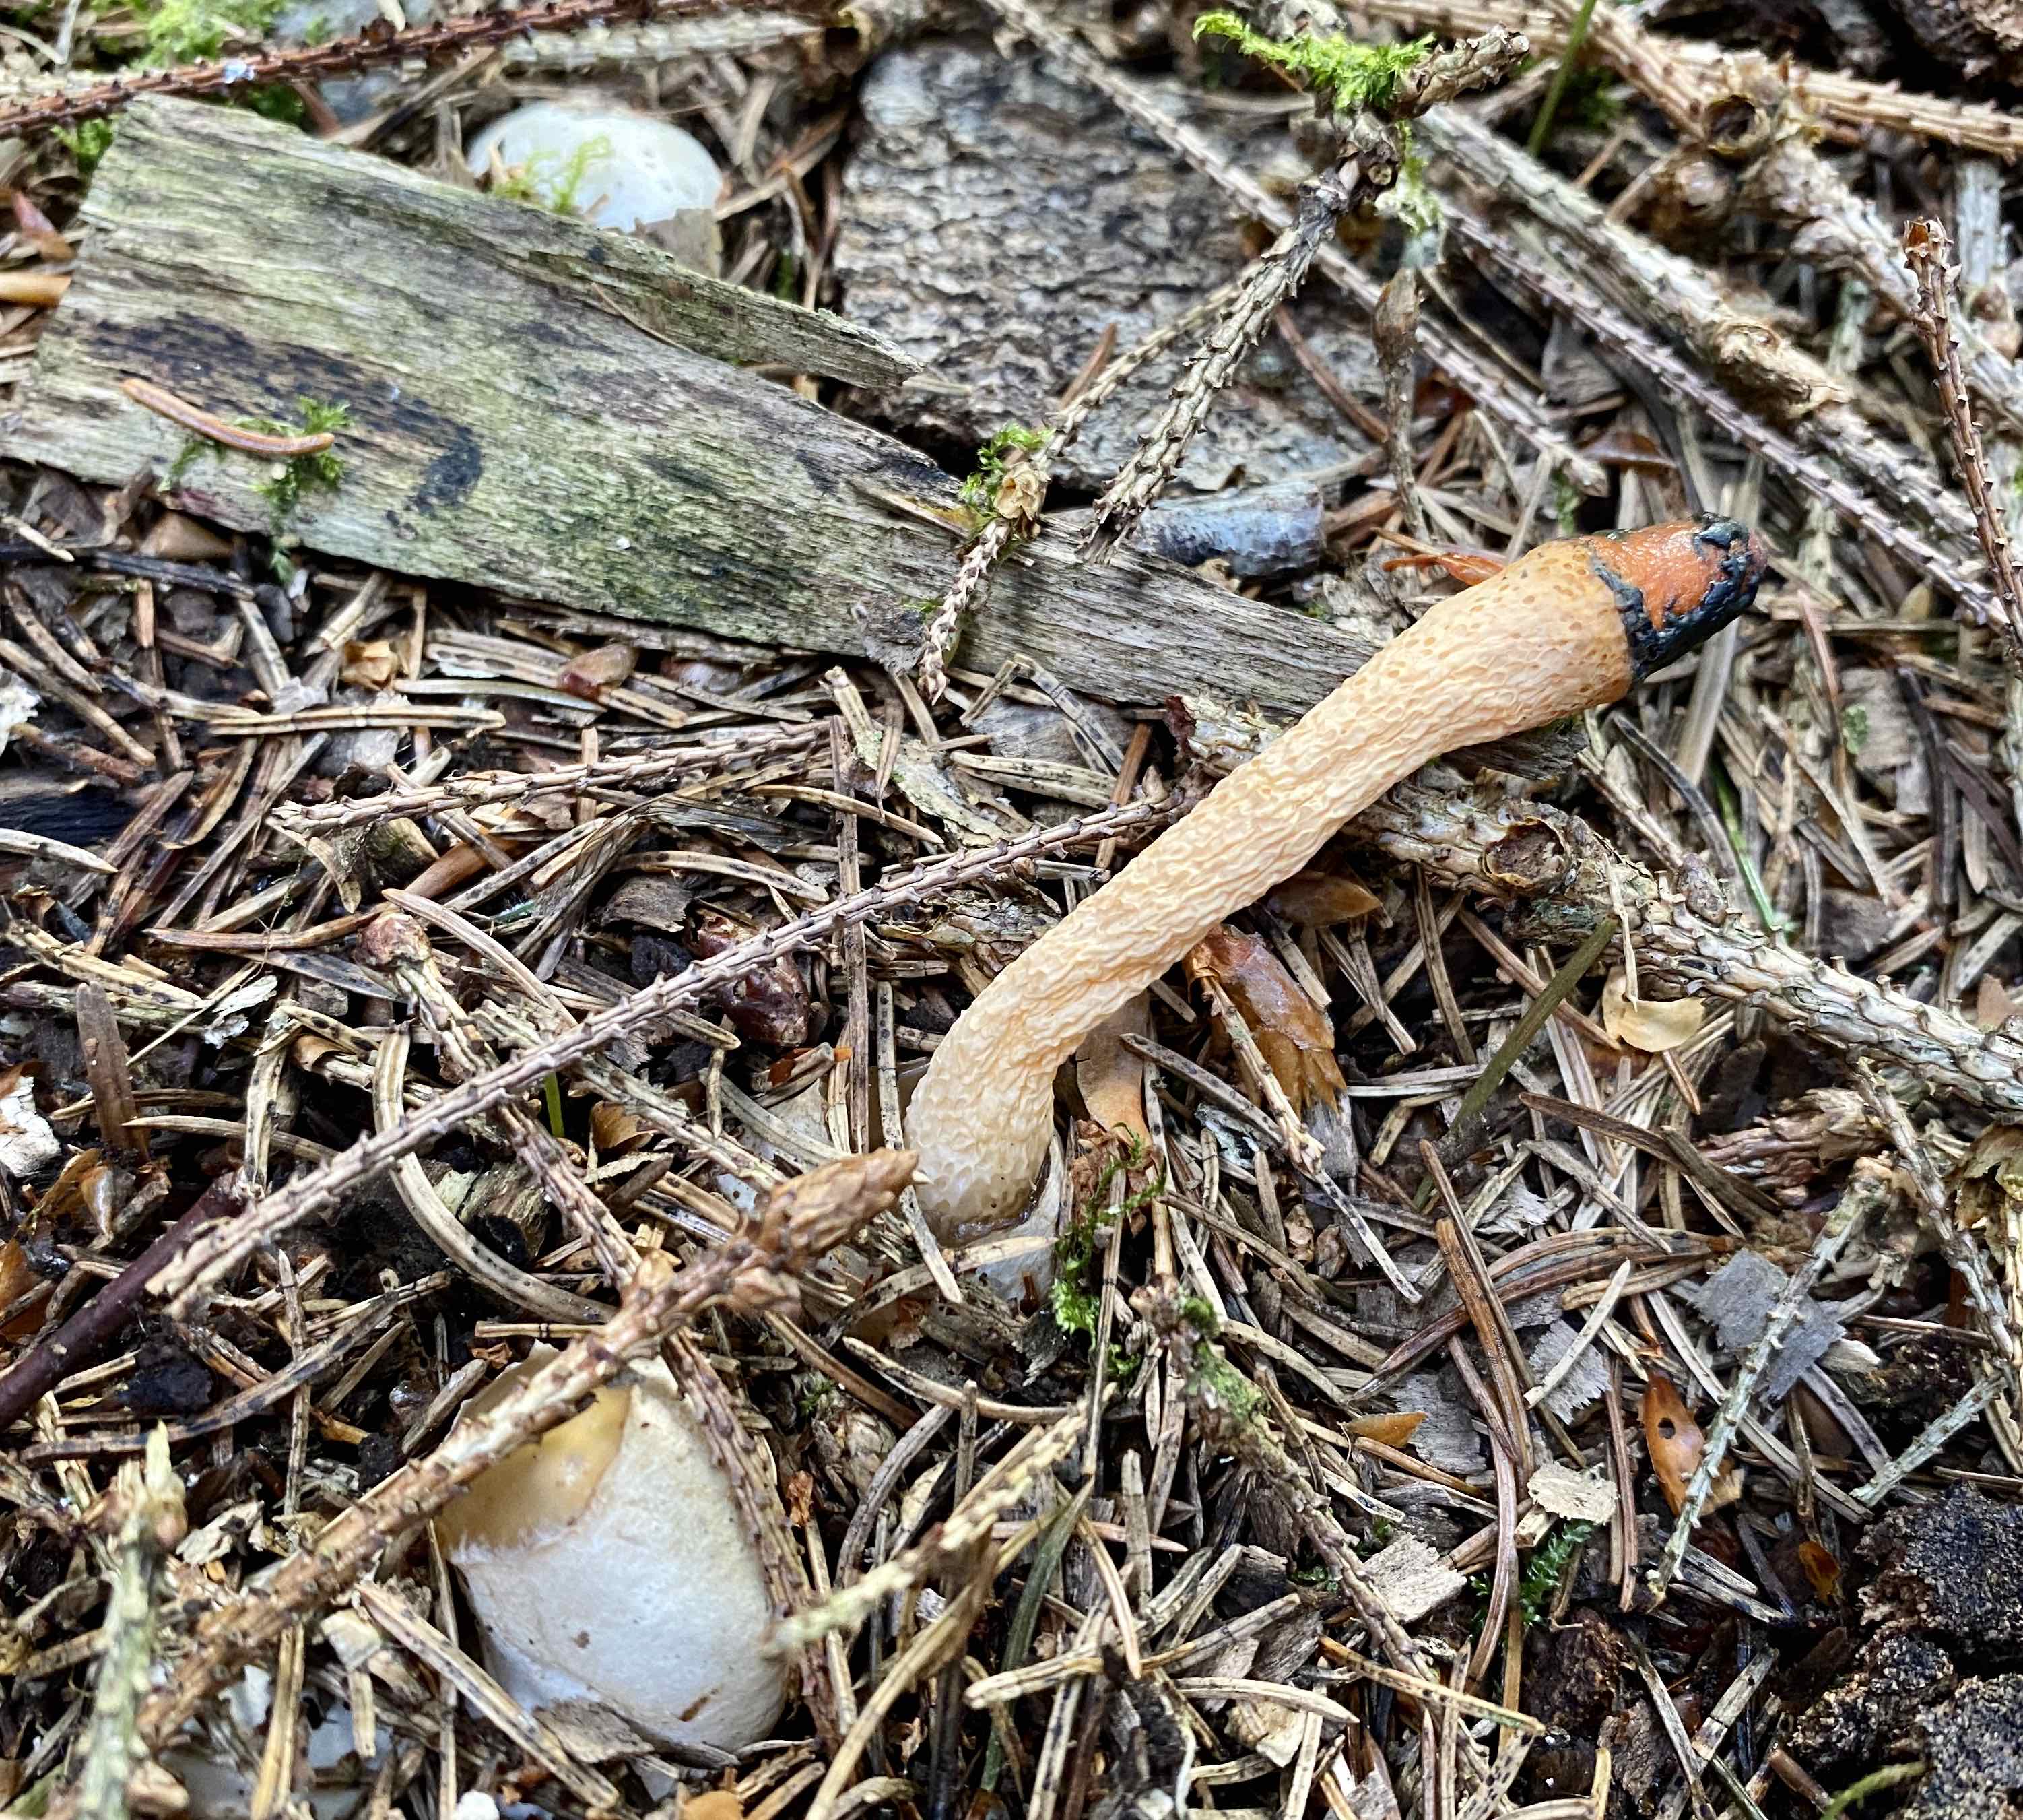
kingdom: Fungi
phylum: Basidiomycota
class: Agaricomycetes
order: Phallales
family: Phallaceae
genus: Mutinus
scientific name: Mutinus caninus
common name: hunde-stinksvamp
